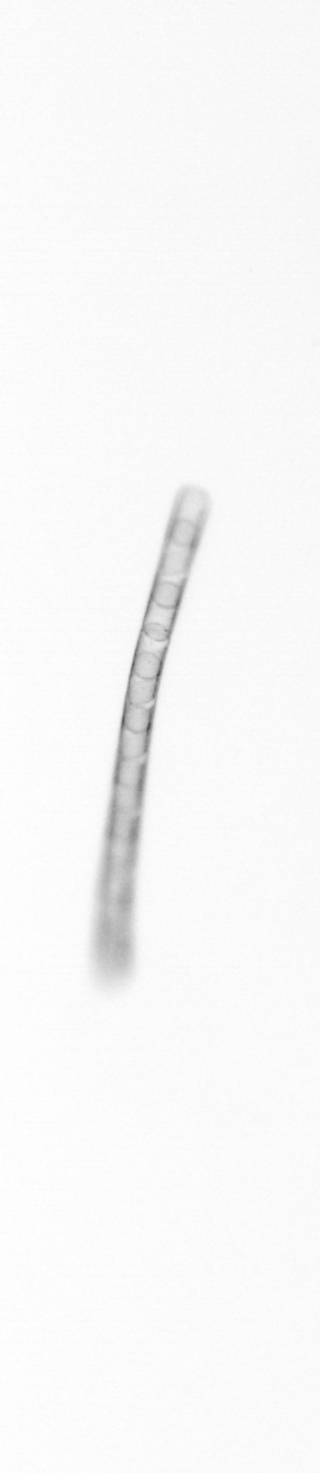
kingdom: Chromista
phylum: Ochrophyta
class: Bacillariophyceae
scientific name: Bacillariophyceae
